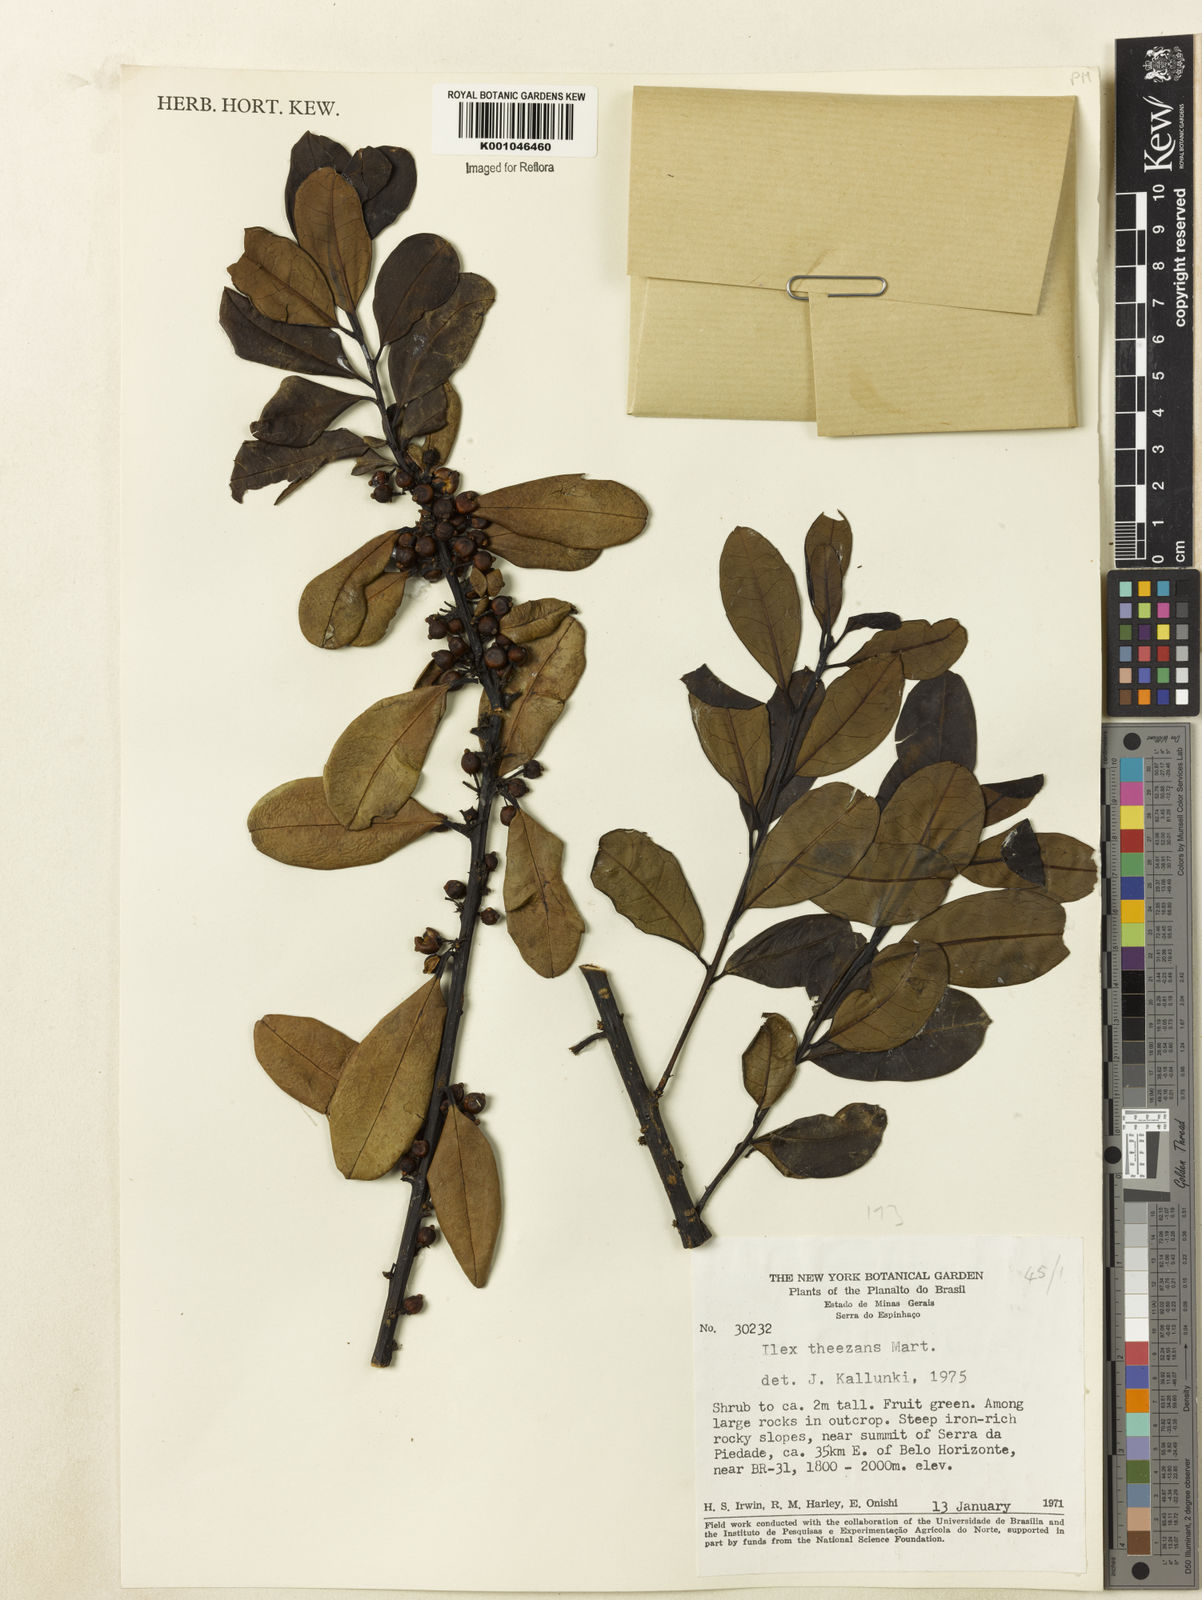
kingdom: Plantae
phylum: Tracheophyta
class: Magnoliopsida
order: Aquifoliales
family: Aquifoliaceae
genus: Ilex
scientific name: Ilex paraguariensis
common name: Paraguay tea
